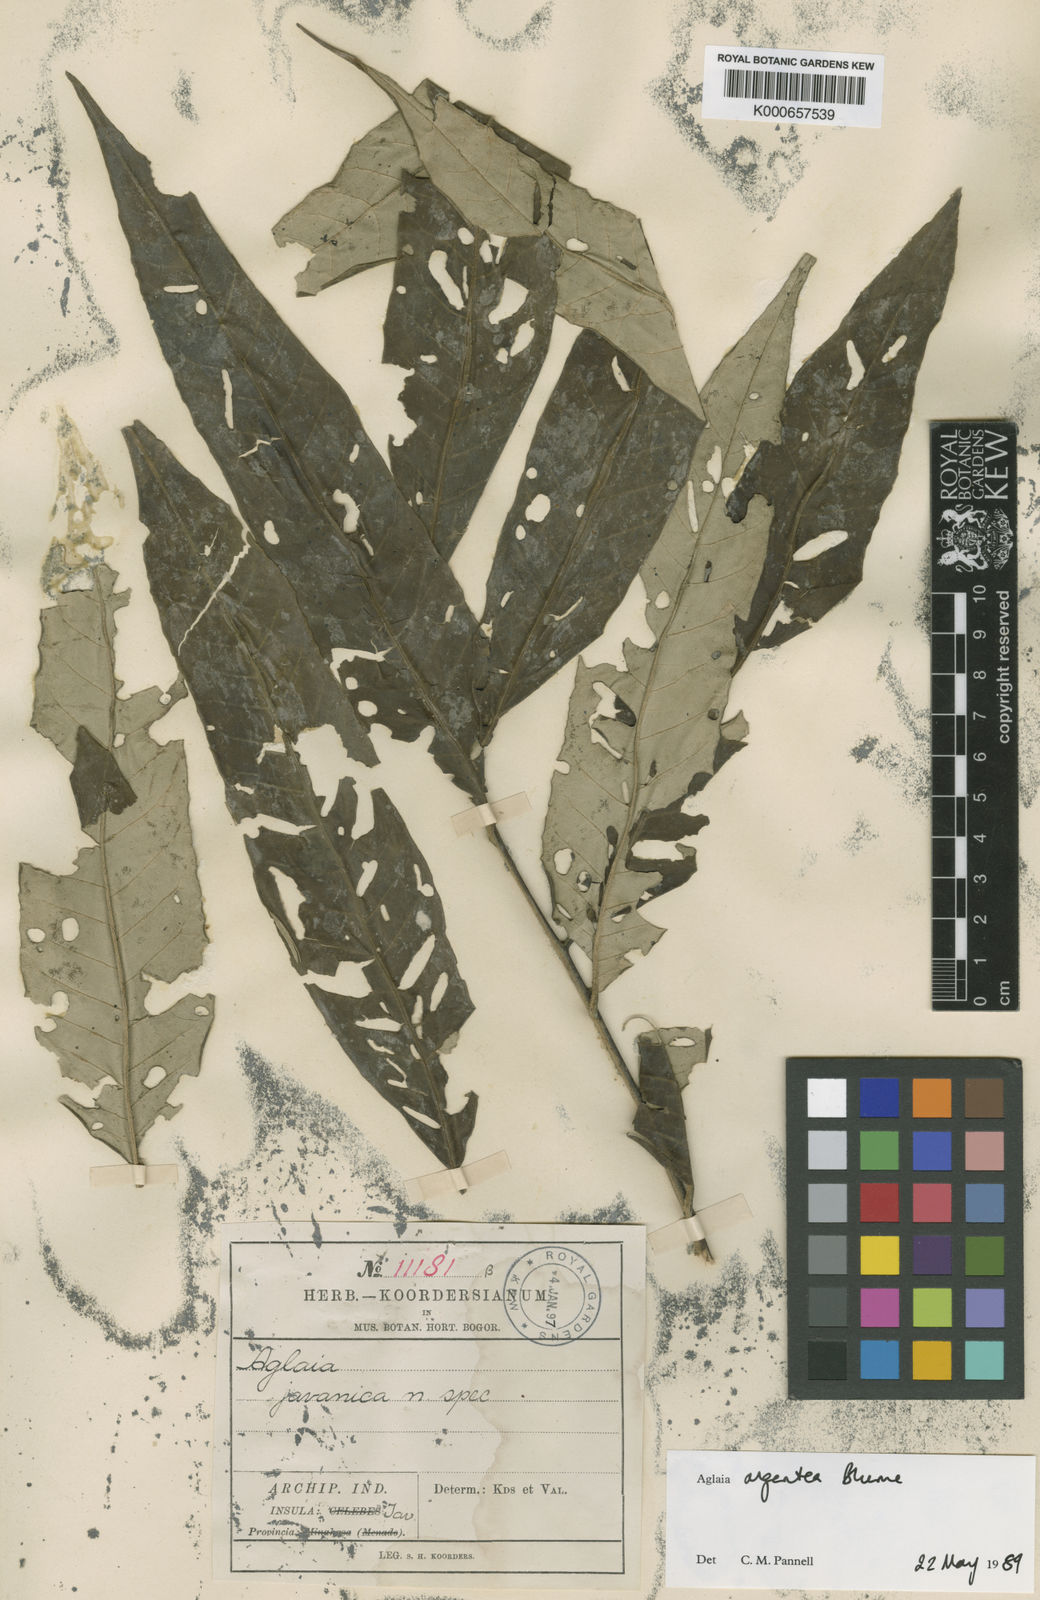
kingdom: Plantae
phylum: Tracheophyta
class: Magnoliopsida
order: Sapindales
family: Meliaceae
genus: Aglaia
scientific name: Aglaia argentea
